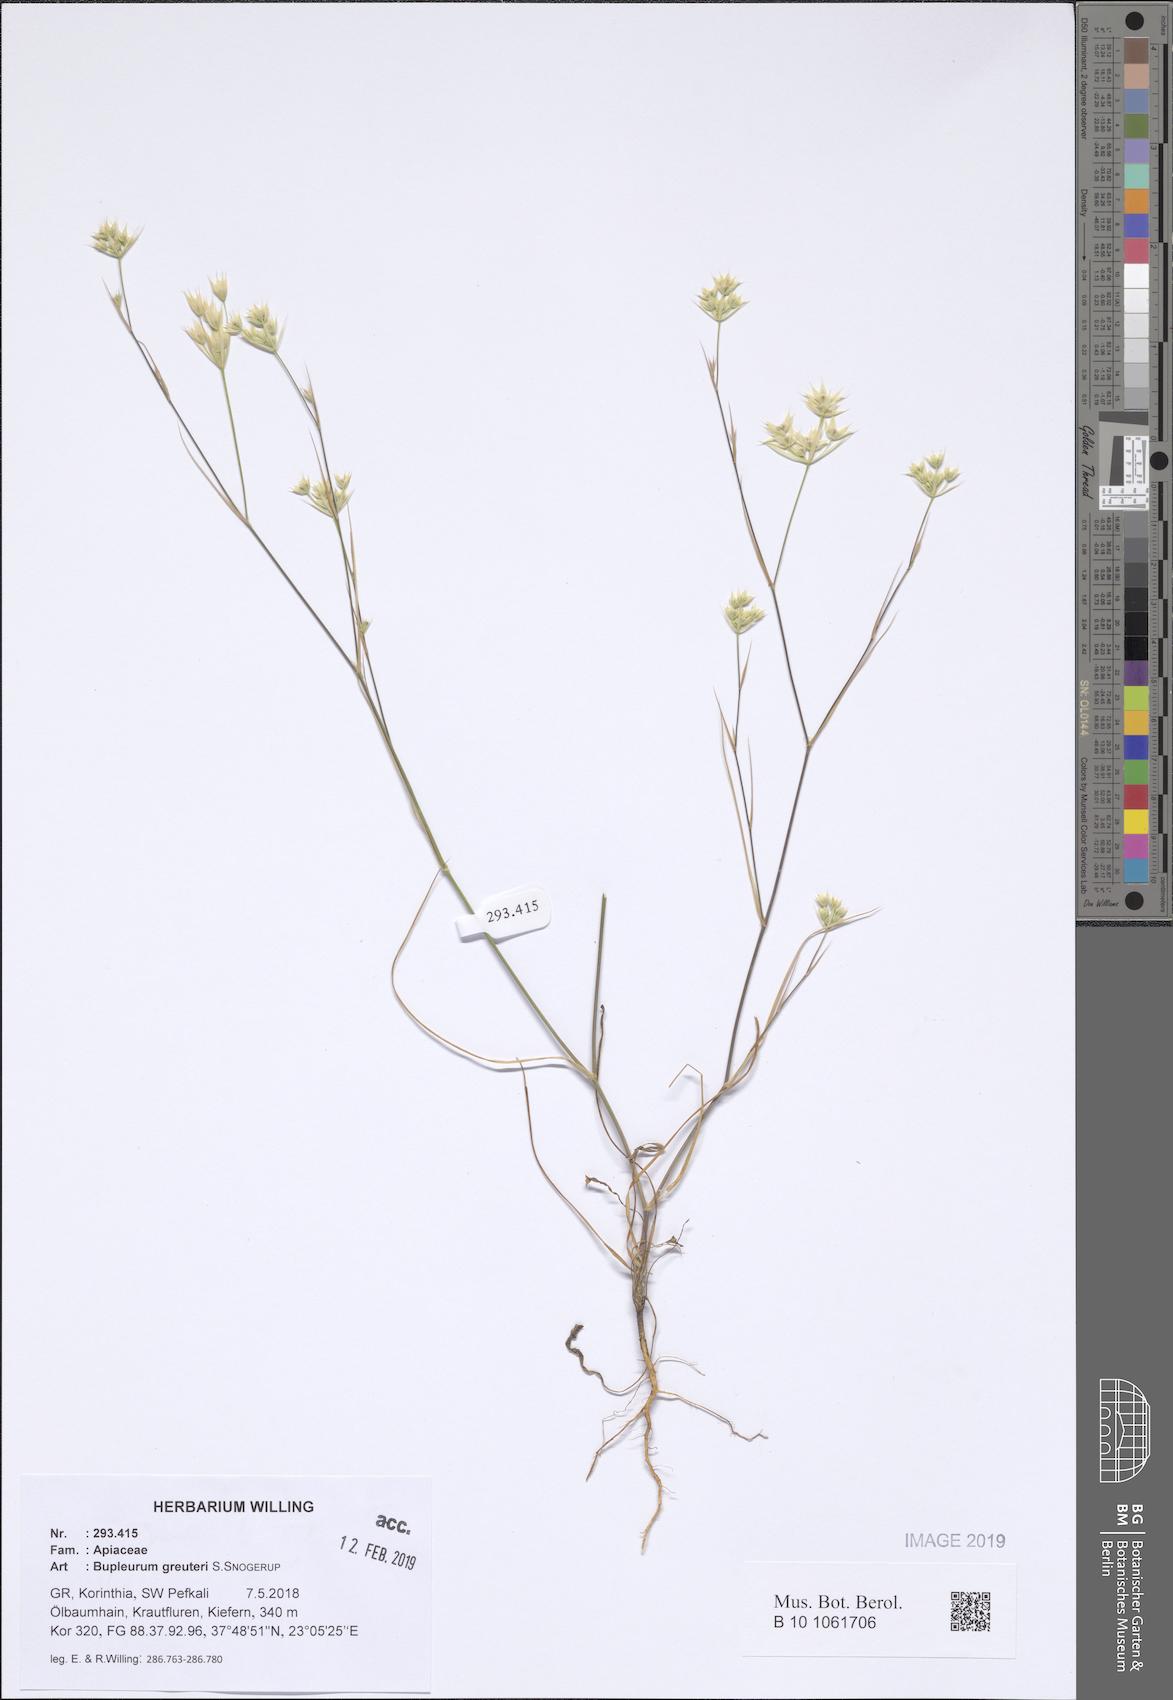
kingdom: Plantae
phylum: Tracheophyta
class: Magnoliopsida
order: Apiales
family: Apiaceae
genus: Bupleurum
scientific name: Bupleurum glumaceum
